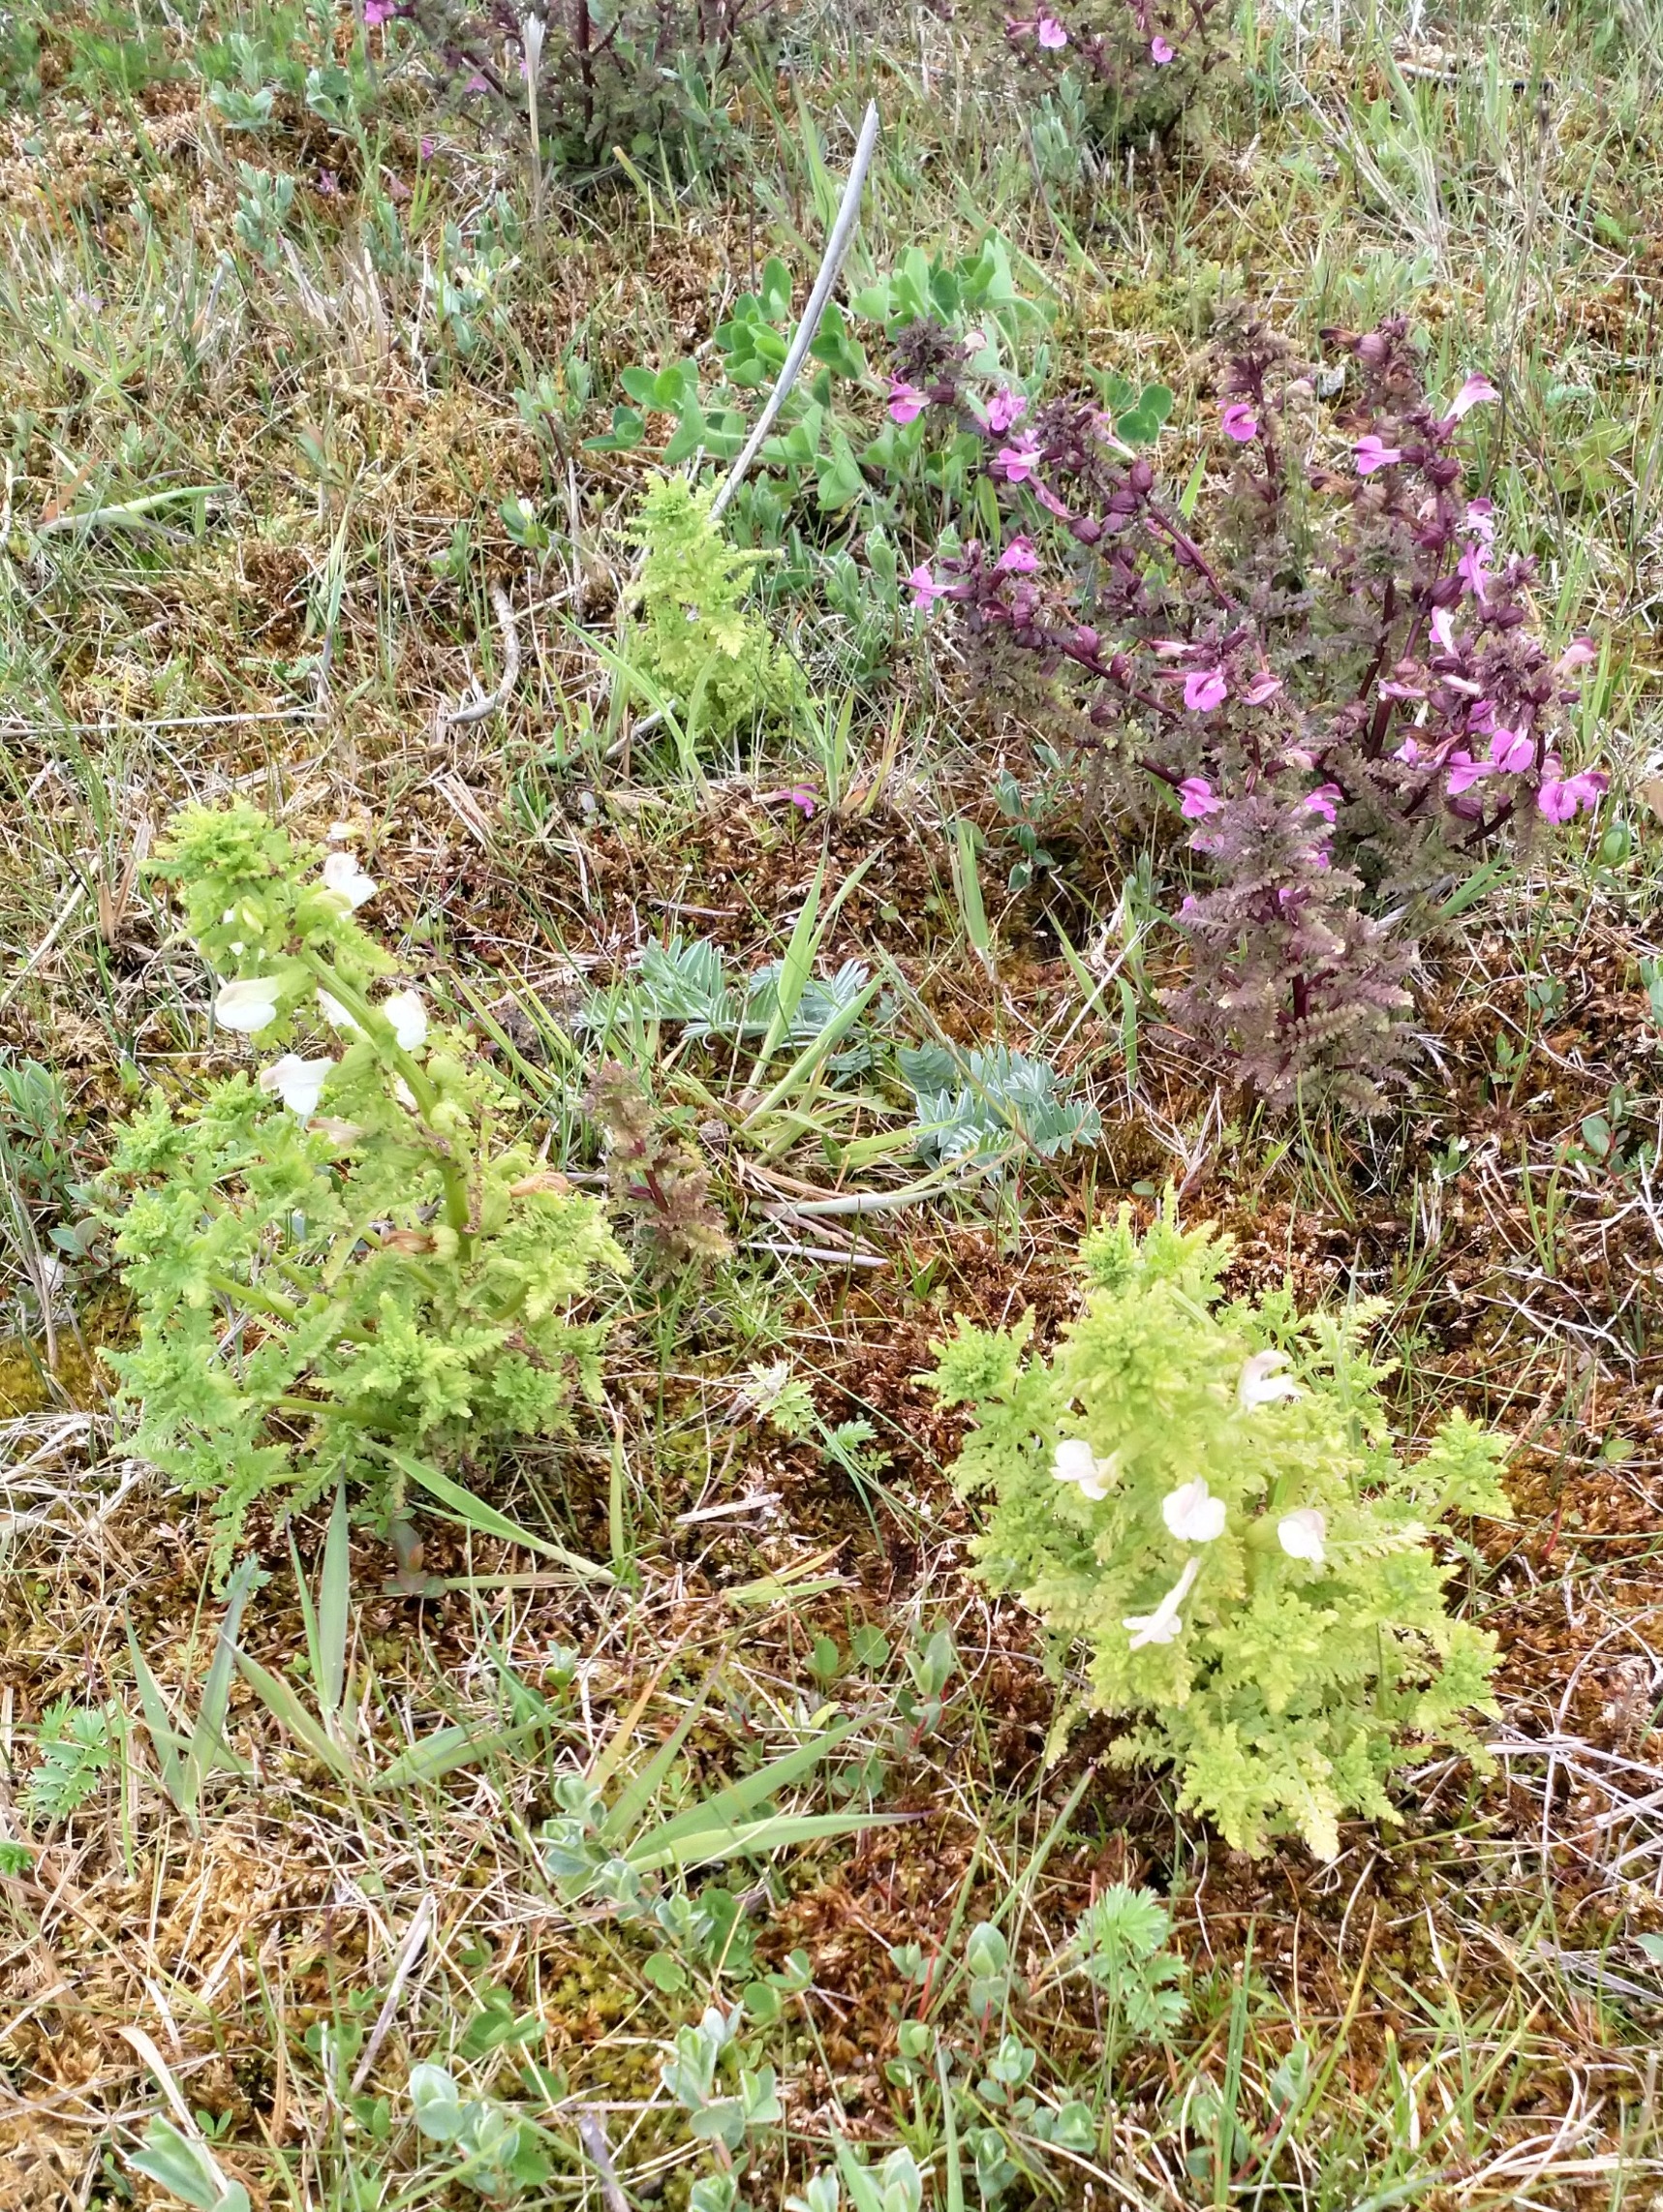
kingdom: Plantae
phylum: Tracheophyta
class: Magnoliopsida
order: Lamiales
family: Orobanchaceae
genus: Pedicularis
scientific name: Pedicularis palustris
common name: Eng-troldurt
